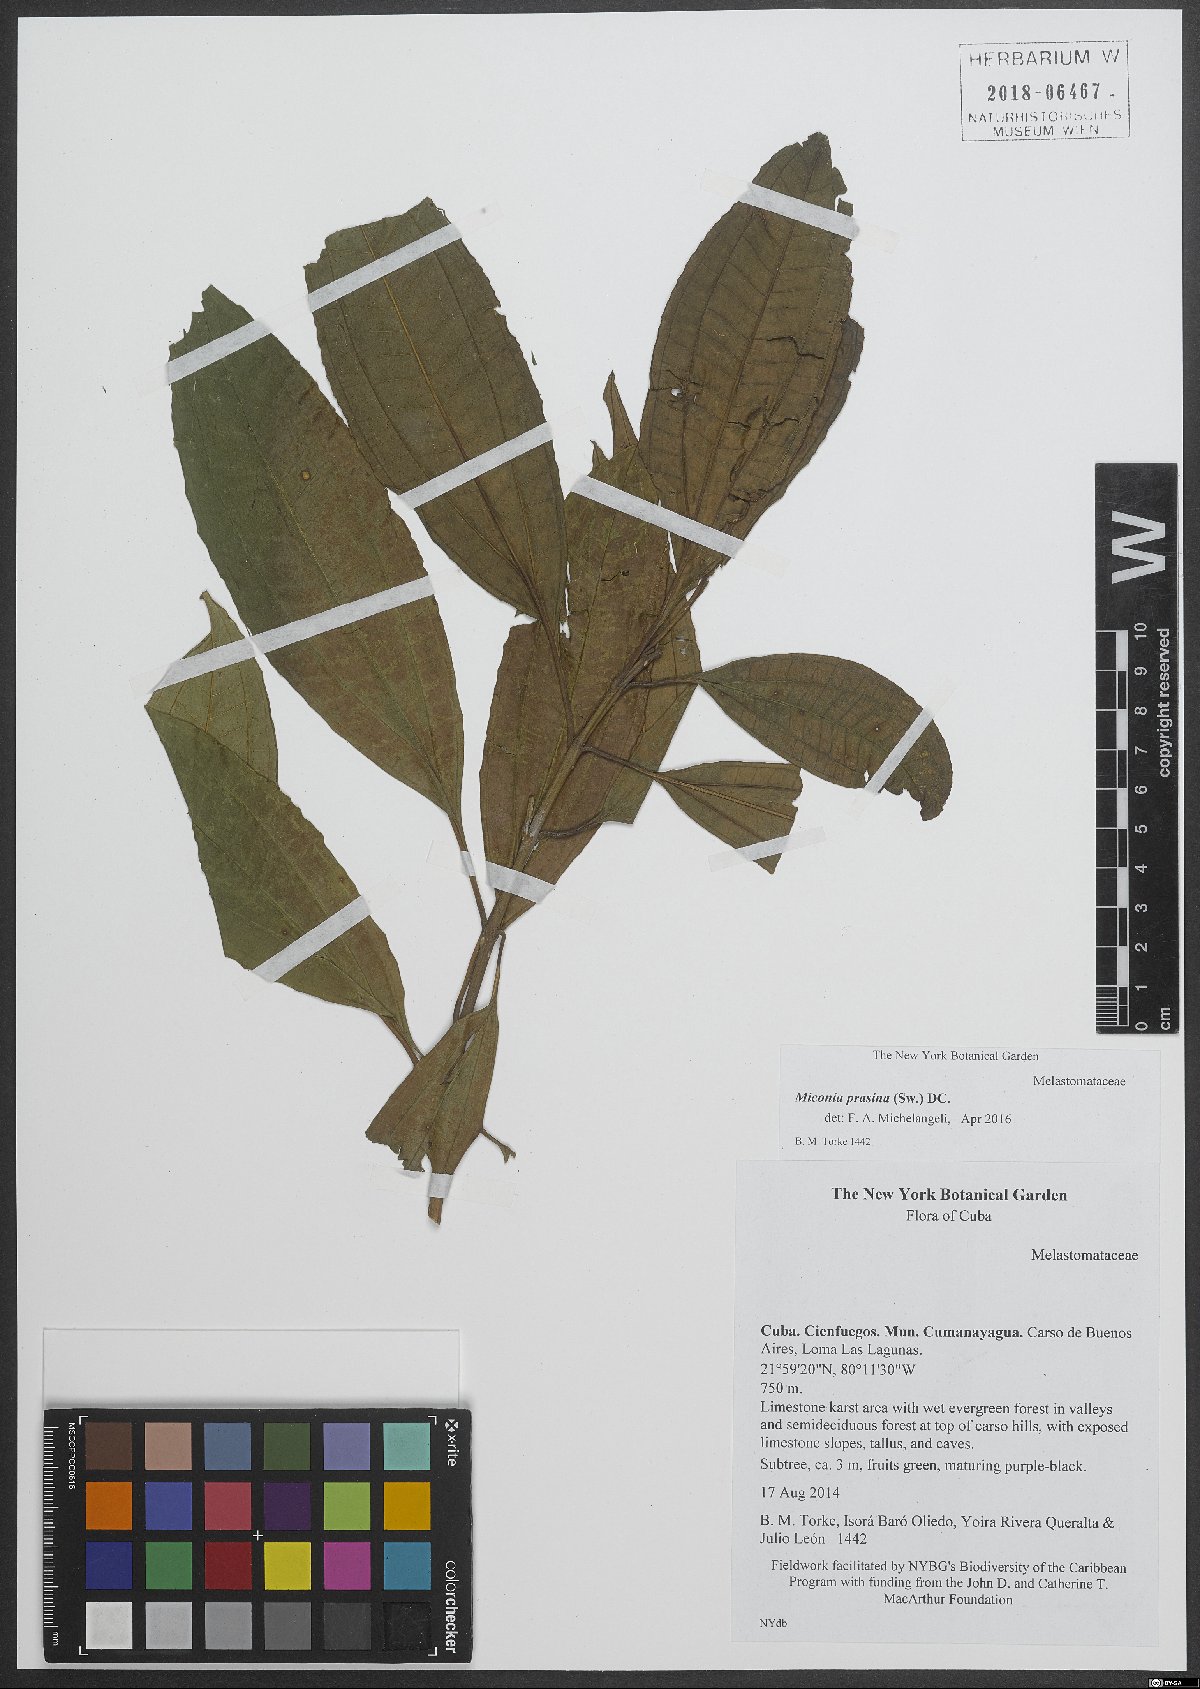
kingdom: Plantae
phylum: Tracheophyta
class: Magnoliopsida
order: Myrtales
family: Melastomataceae
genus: Miconia
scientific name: Miconia prasina
